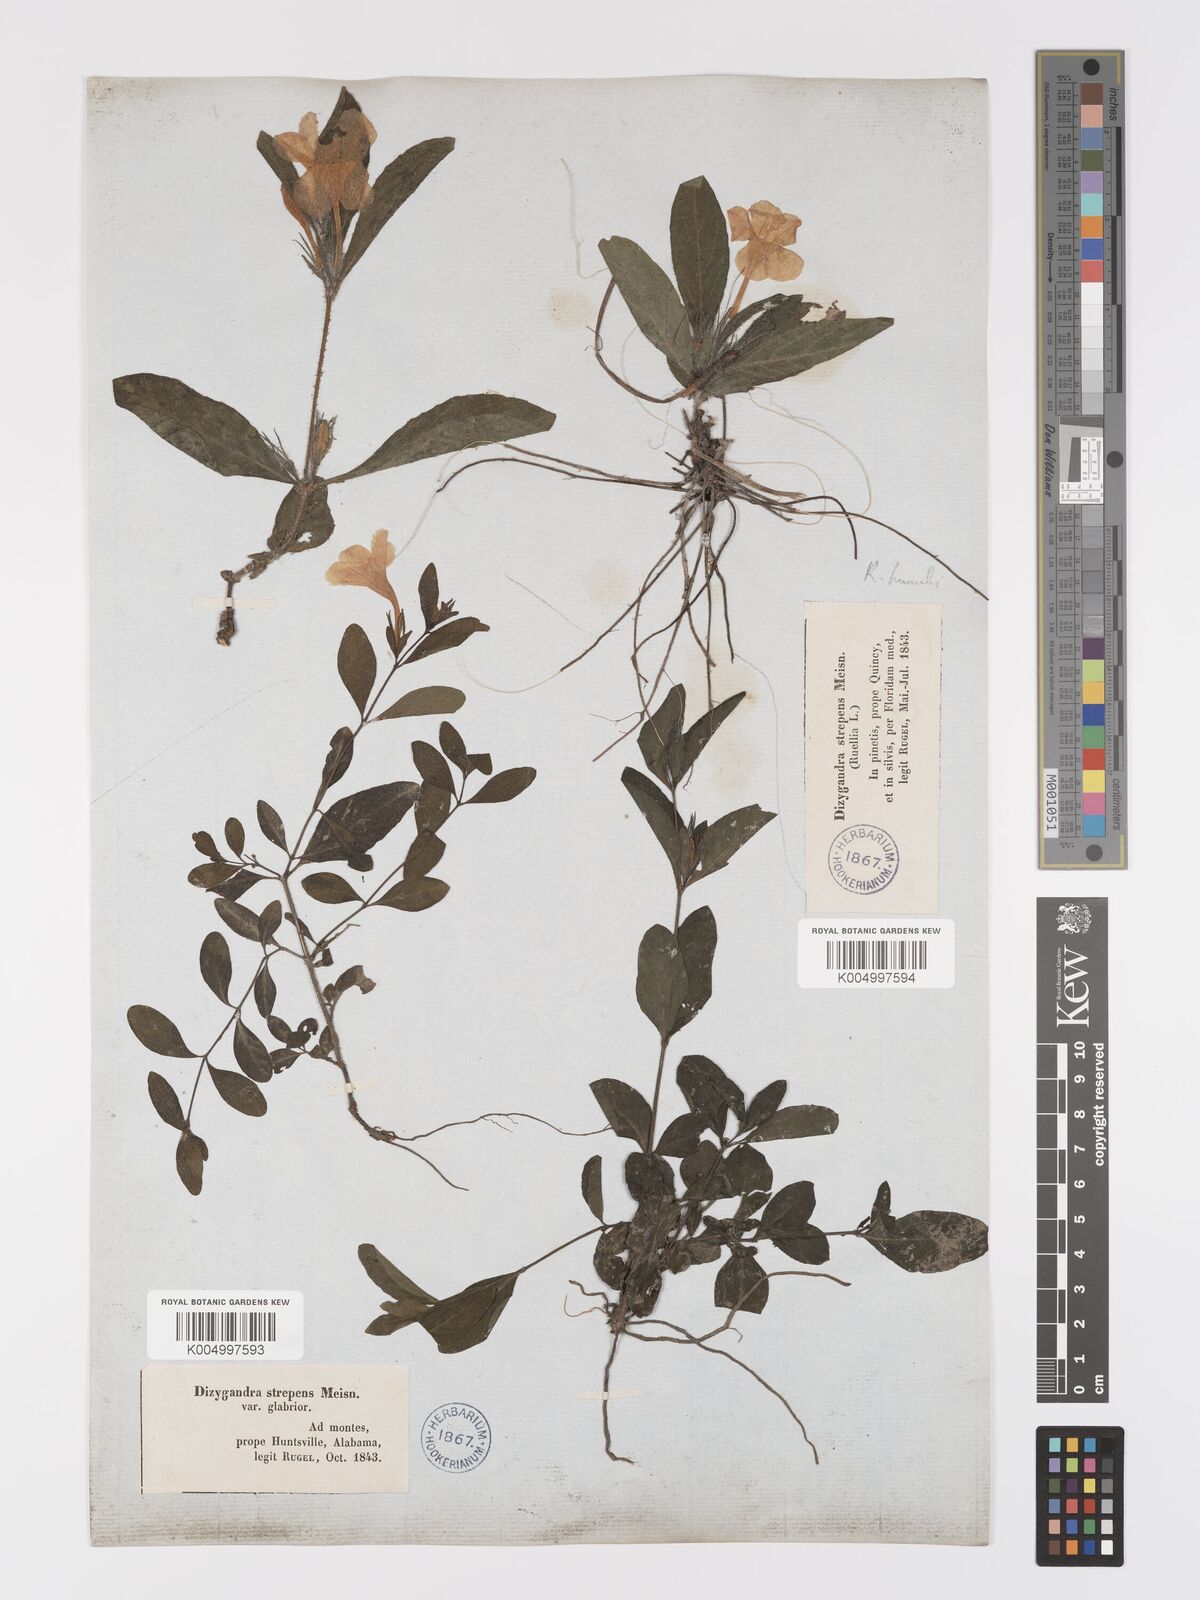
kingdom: Plantae
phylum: Tracheophyta
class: Magnoliopsida
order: Lamiales
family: Acanthaceae
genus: Ruellia
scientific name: Ruellia
